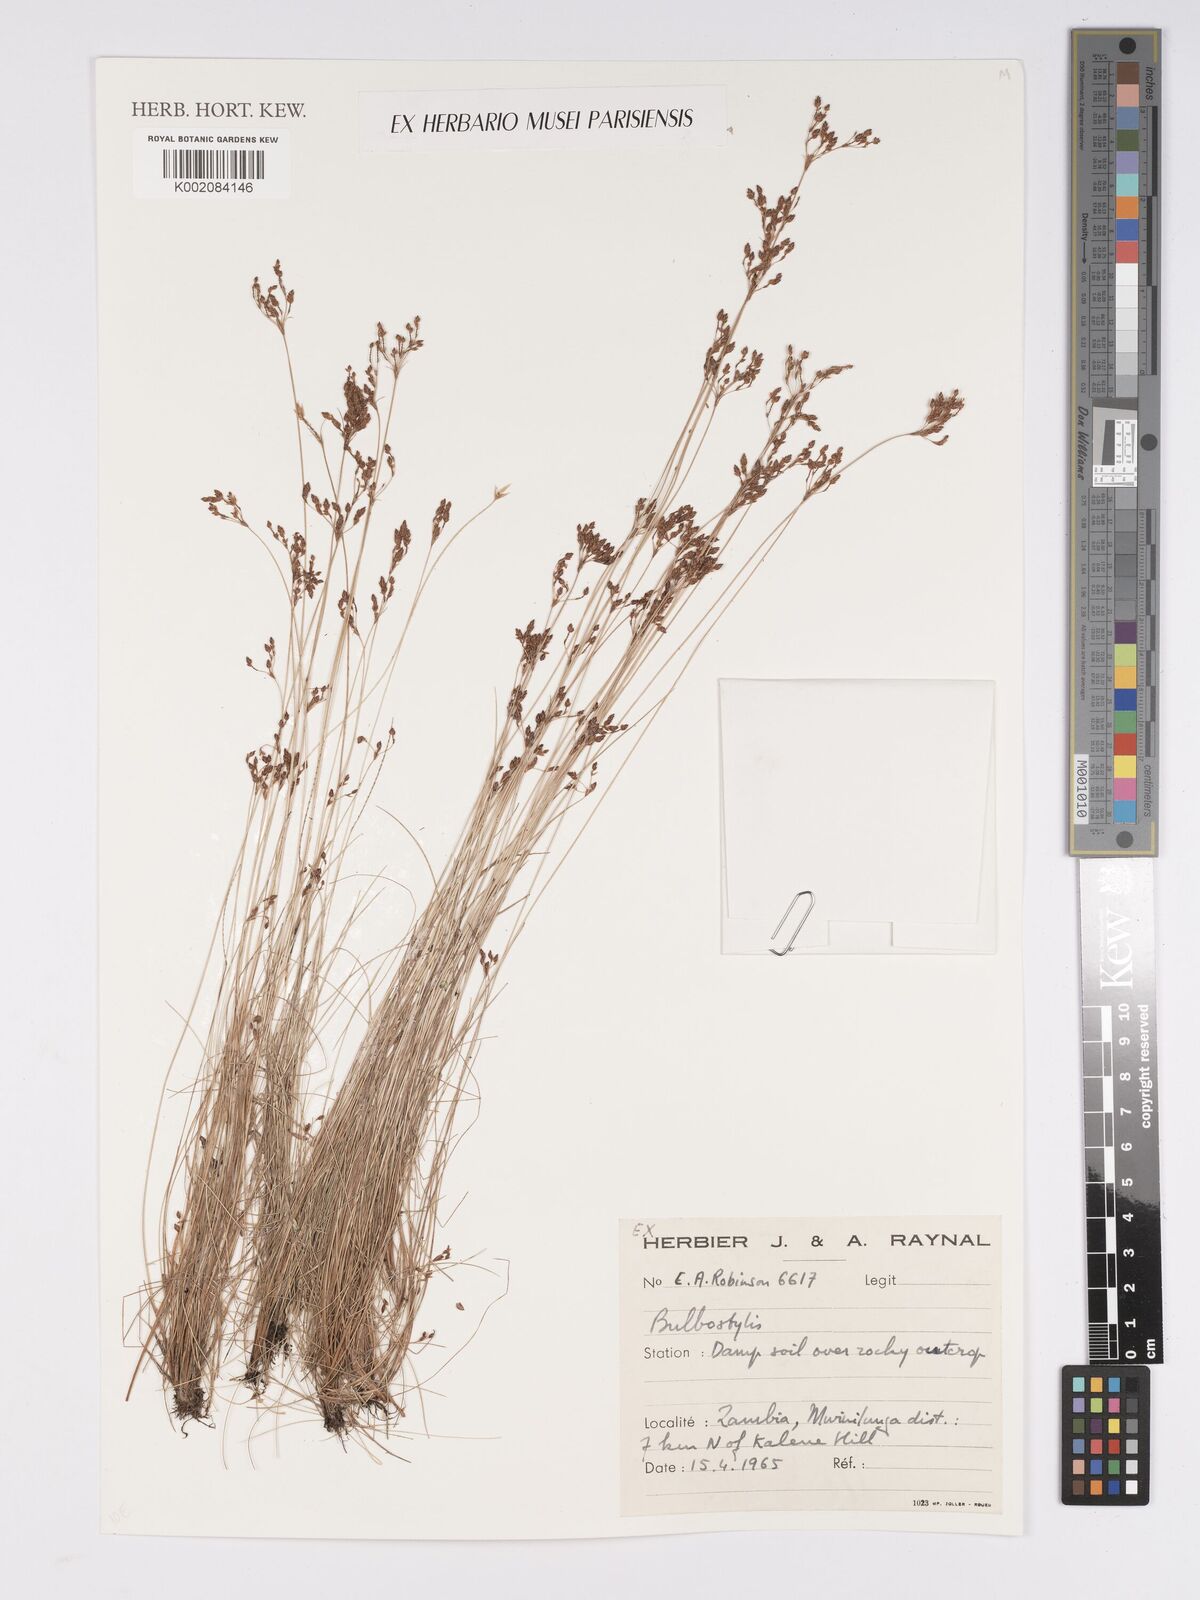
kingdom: Plantae
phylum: Tracheophyta
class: Liliopsida
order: Poales
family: Cyperaceae
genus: Bulbostylis
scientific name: Bulbostylis
